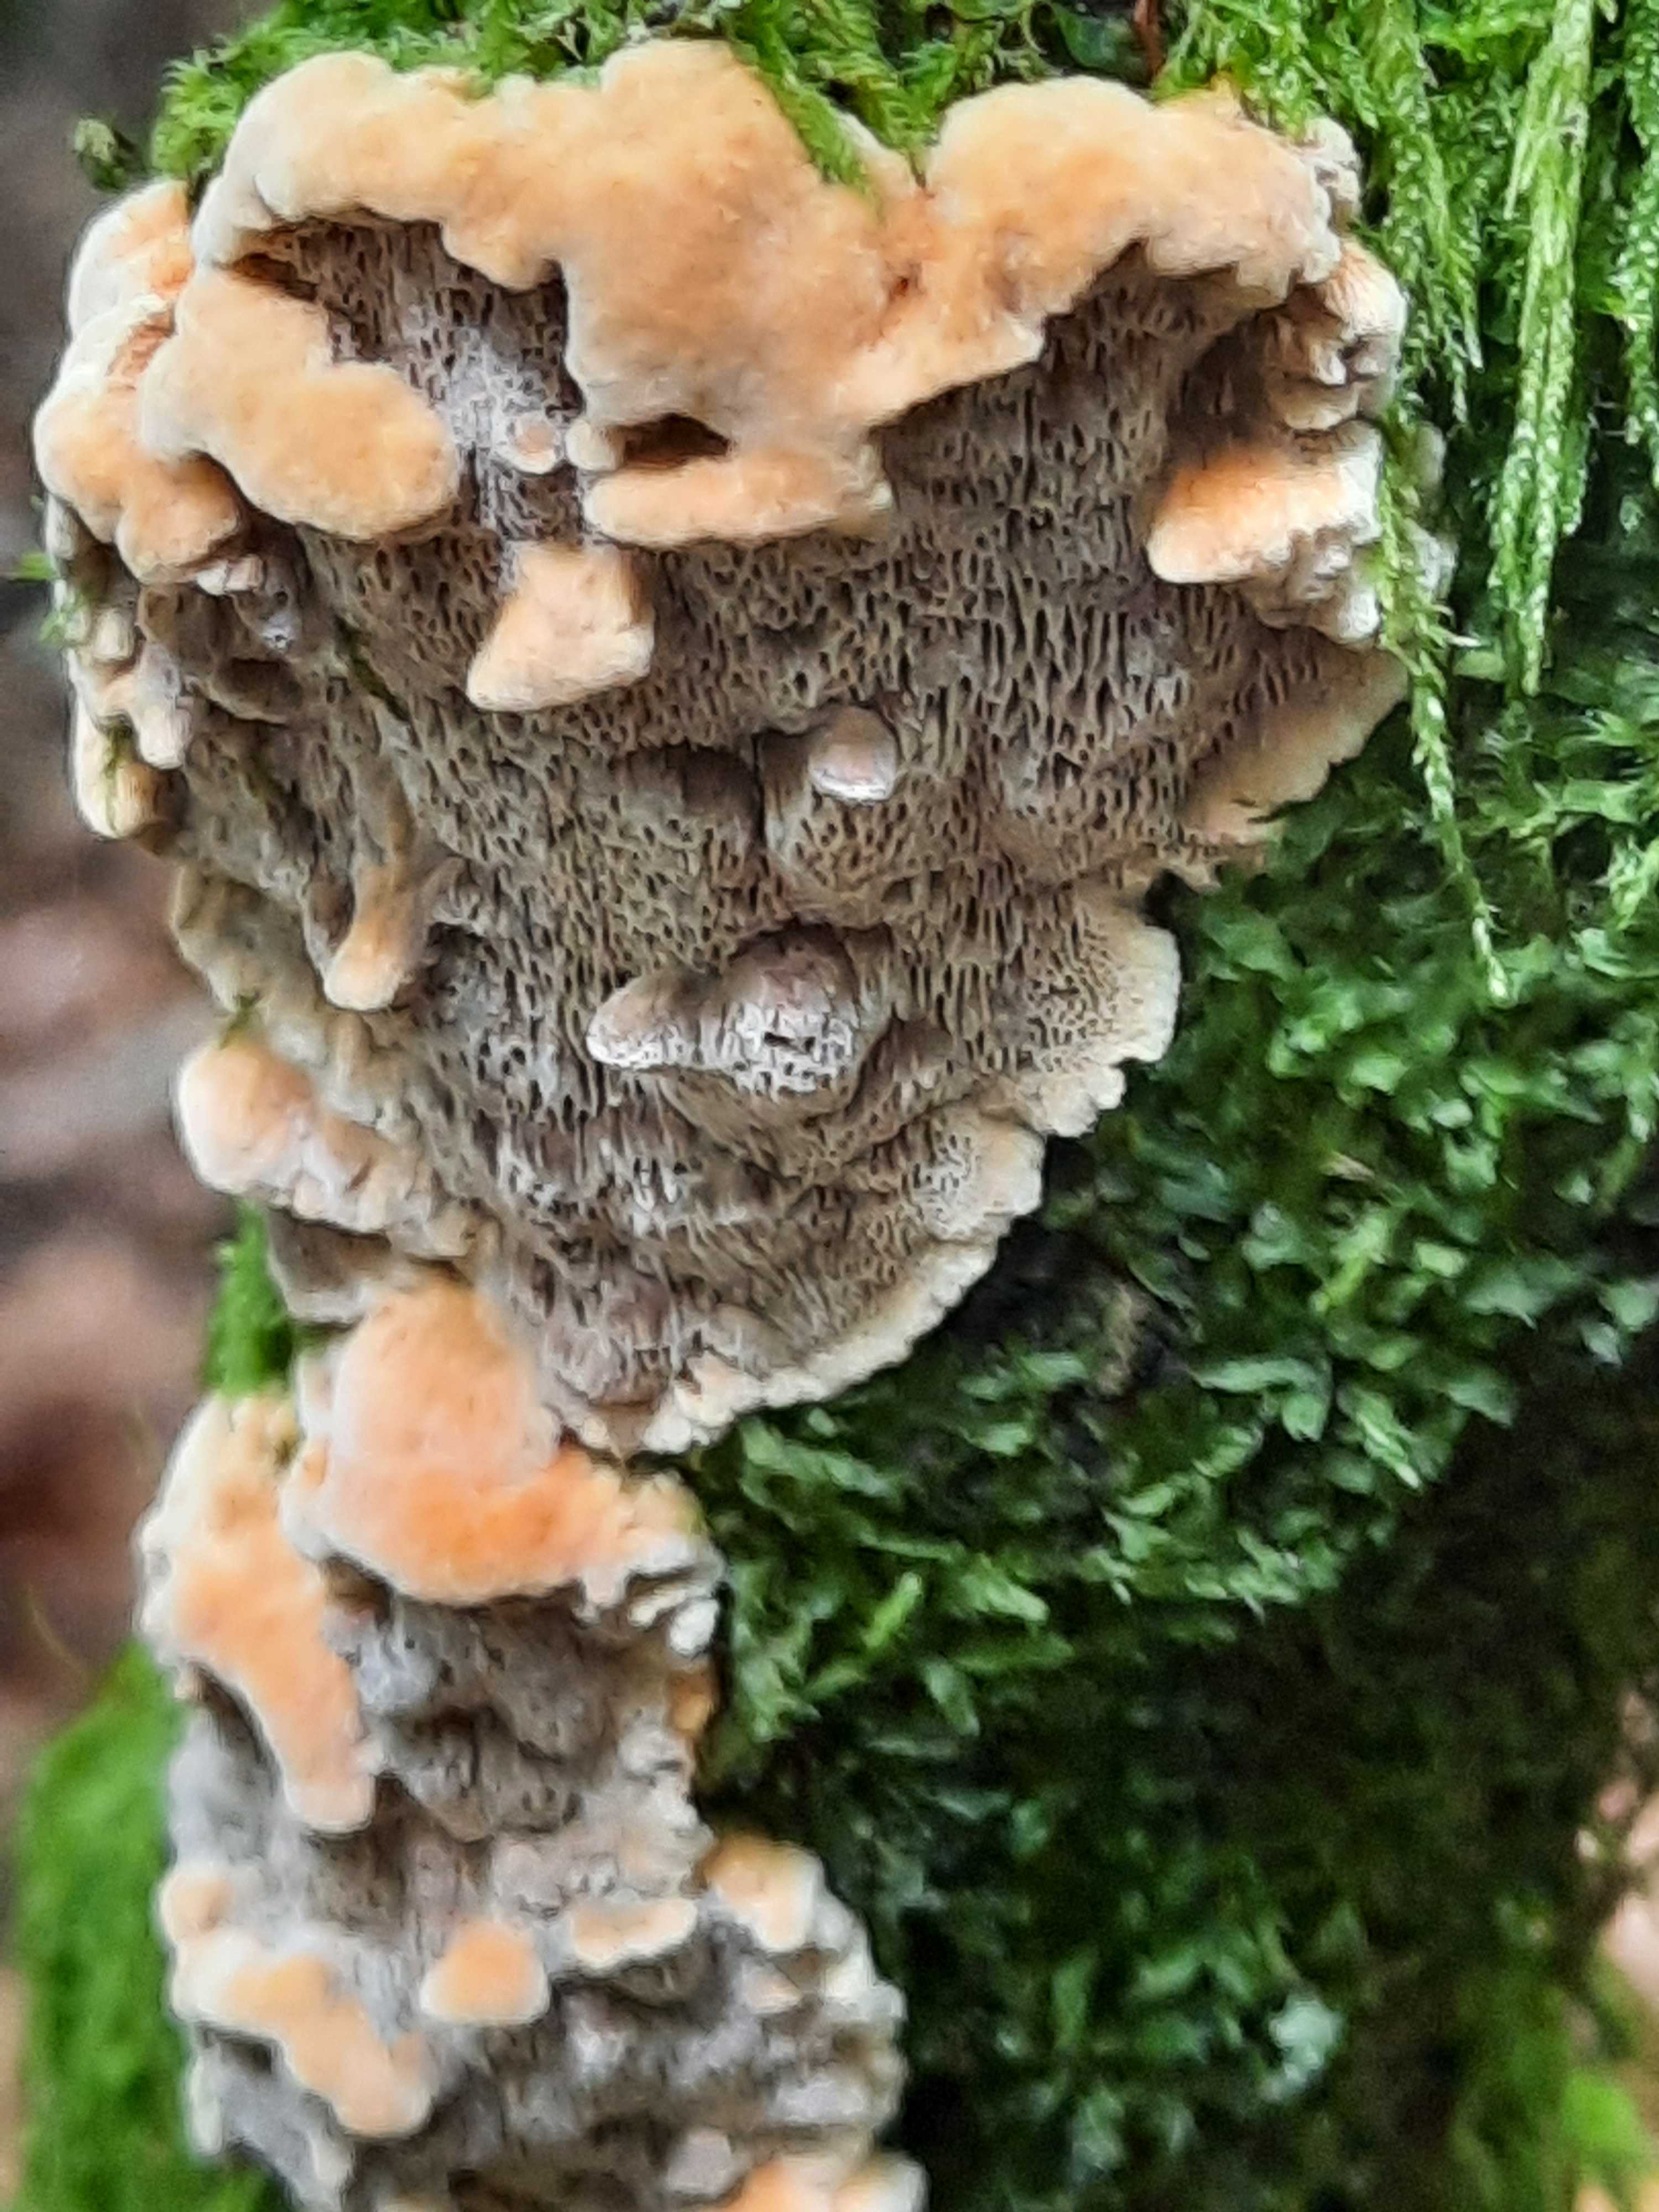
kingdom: Fungi
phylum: Basidiomycota
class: Agaricomycetes
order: Hymenochaetales
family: Hymenochaetaceae
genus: Mensularia
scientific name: Mensularia nodulosa
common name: bøge-spejlporesvamp
